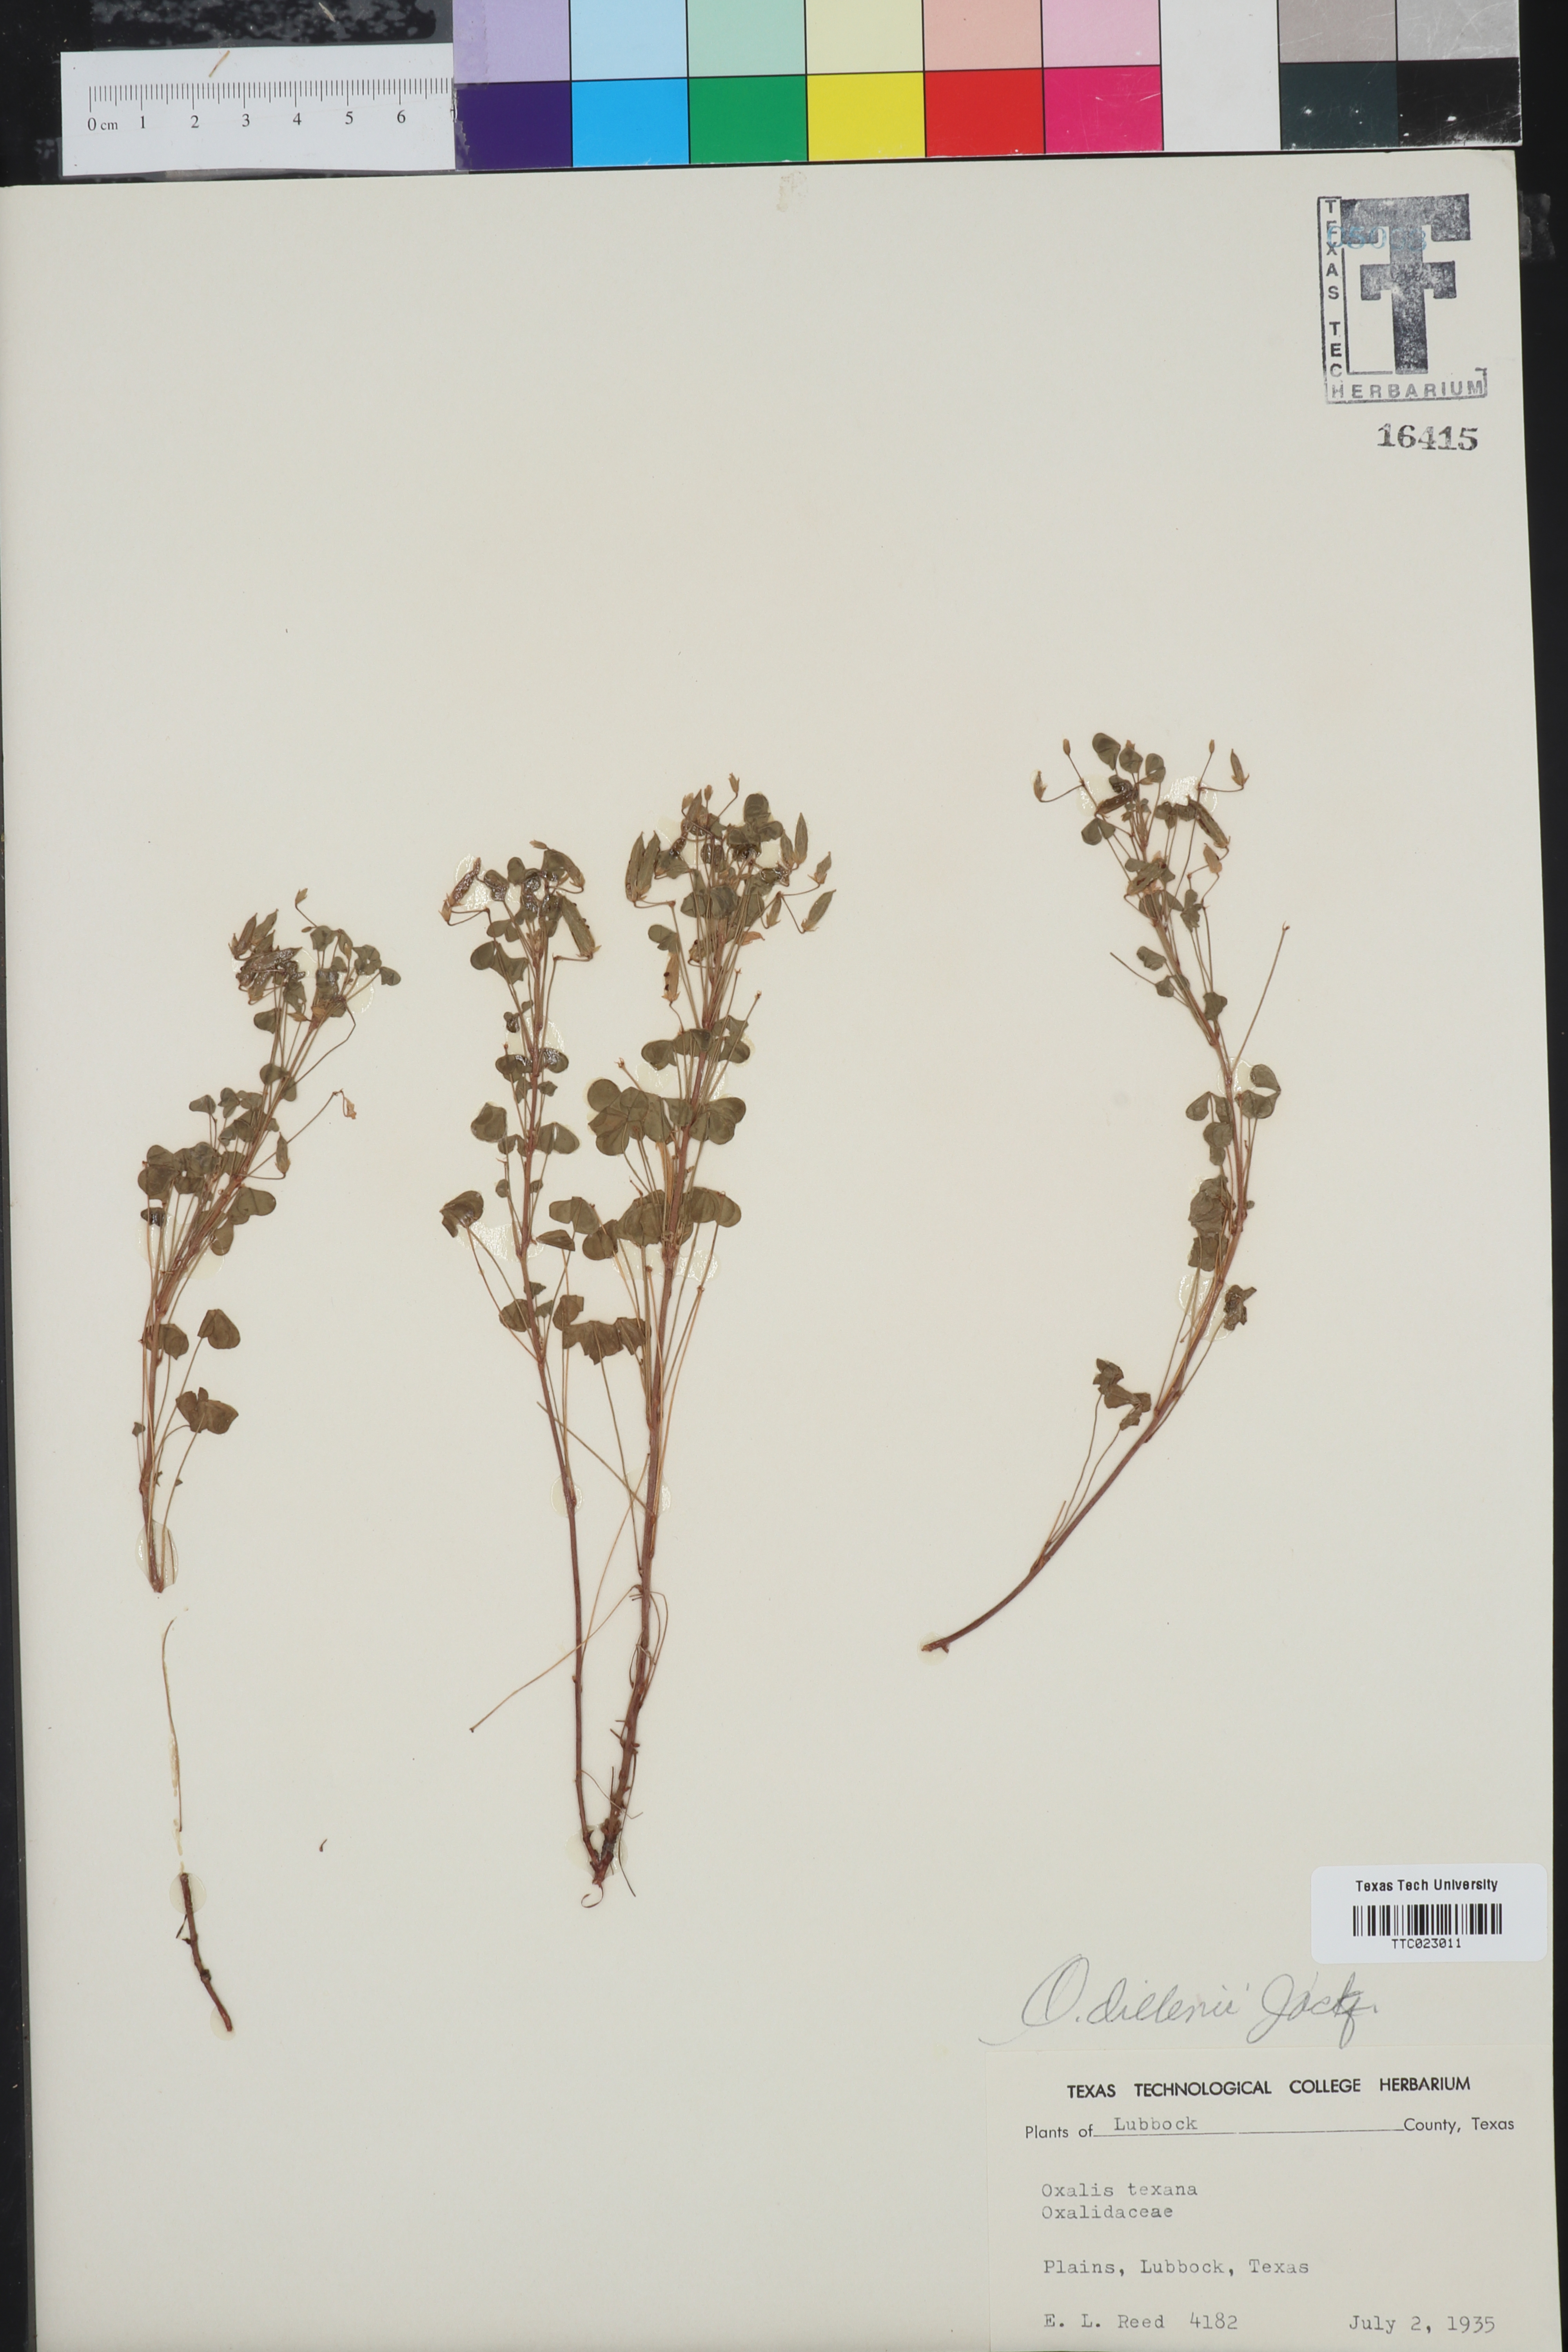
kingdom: Plantae
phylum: Tracheophyta
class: Magnoliopsida
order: Oxalidales
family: Oxalidaceae
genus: Oxalis
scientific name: Oxalis dillenii
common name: Sussex yellow-sorrel
